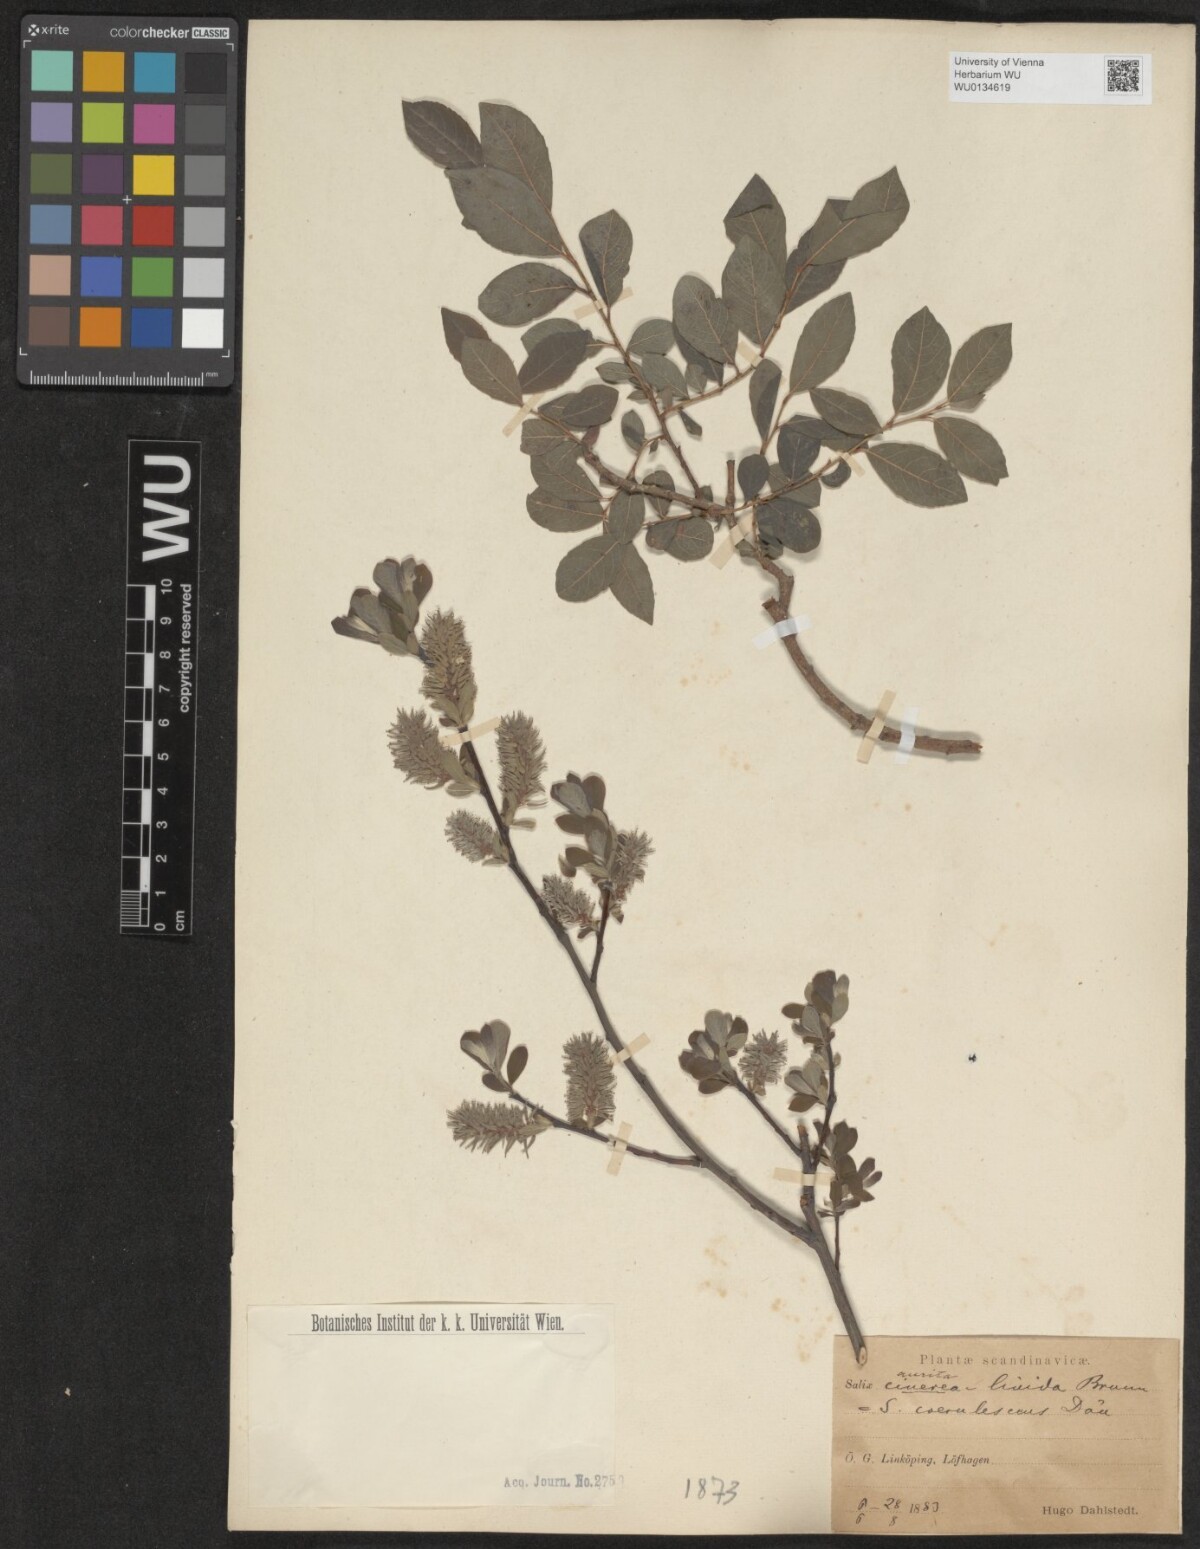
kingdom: Plantae
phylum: Tracheophyta
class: Magnoliopsida
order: Malpighiales
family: Salicaceae
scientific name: Salicaceae
